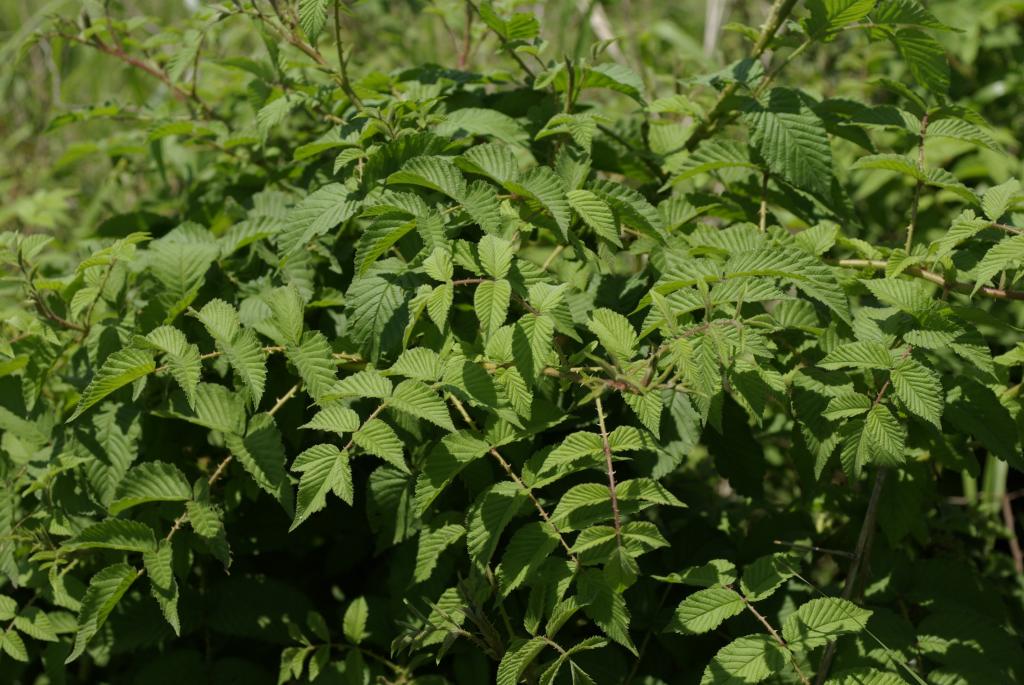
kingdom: Plantae
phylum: Tracheophyta
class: Magnoliopsida
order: Rosales
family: Rosaceae
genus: Rubus
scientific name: Rubus croceacanthus
